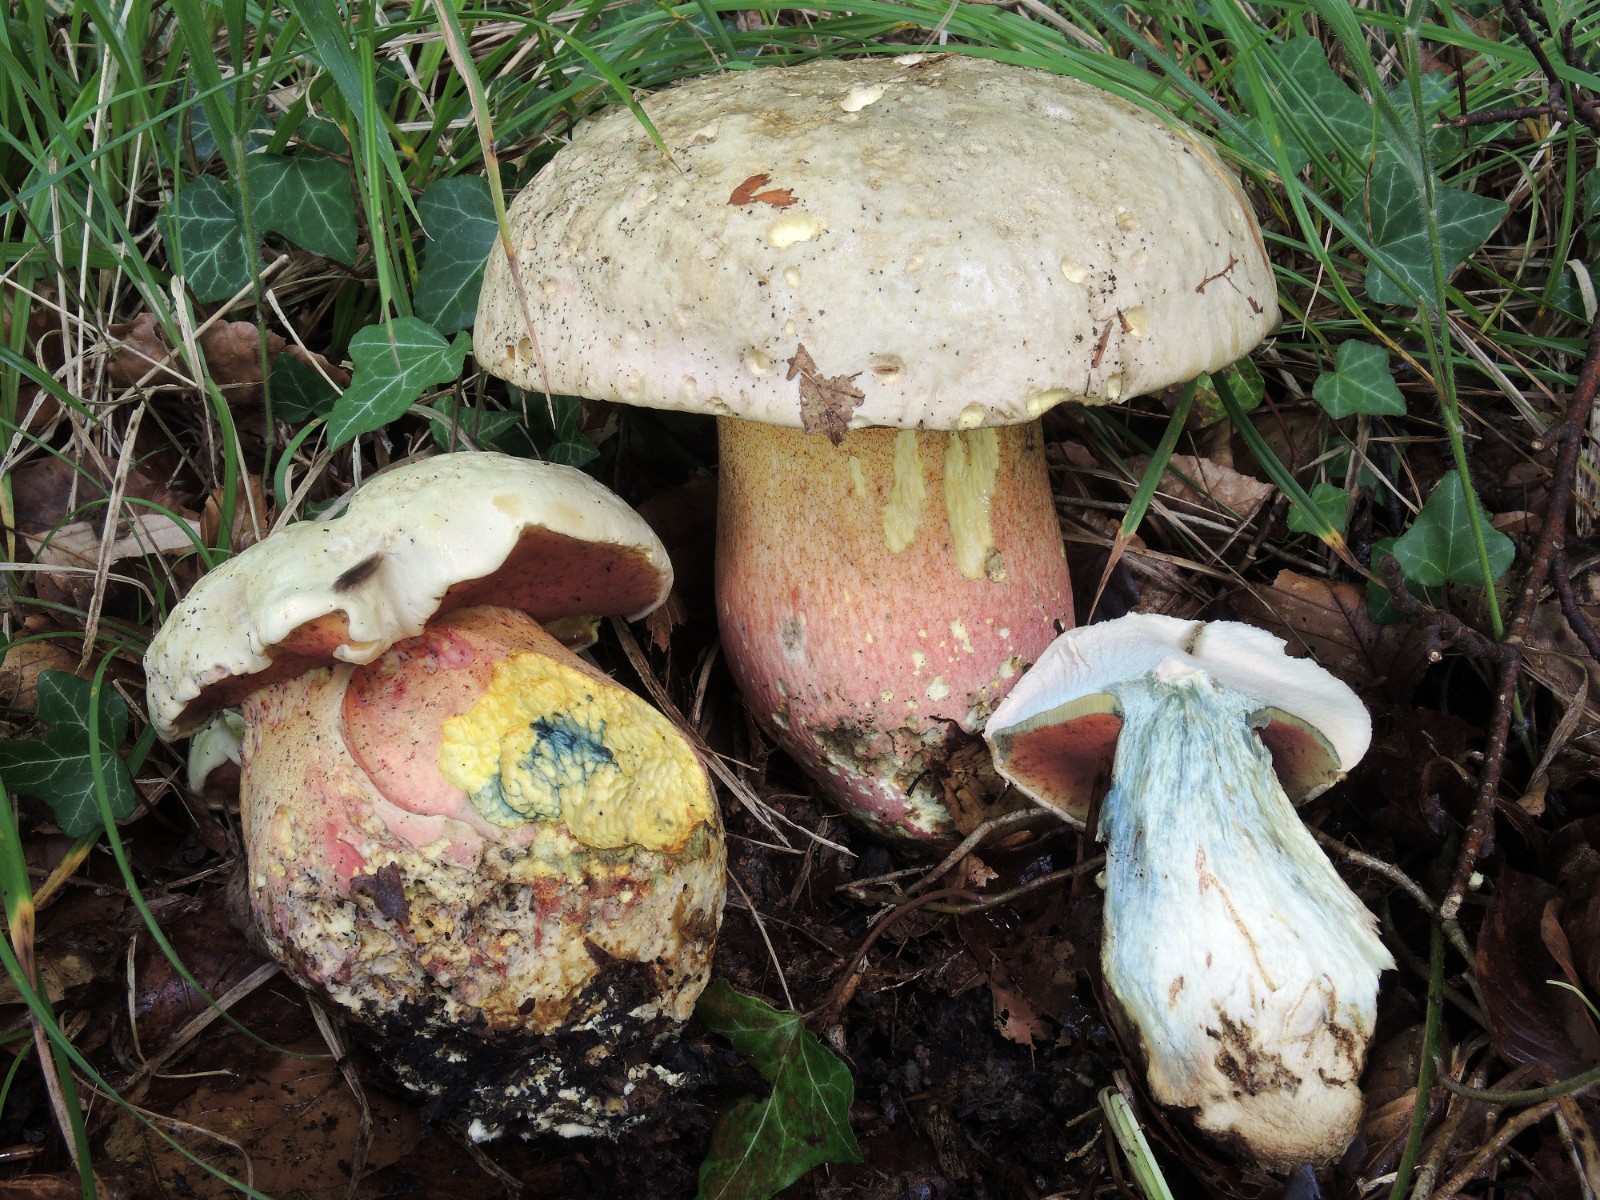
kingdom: Fungi
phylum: Basidiomycota
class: Agaricomycetes
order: Boletales
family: Boletaceae
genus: Rubroboletus
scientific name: Rubroboletus satanas
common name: Satans rørhat
